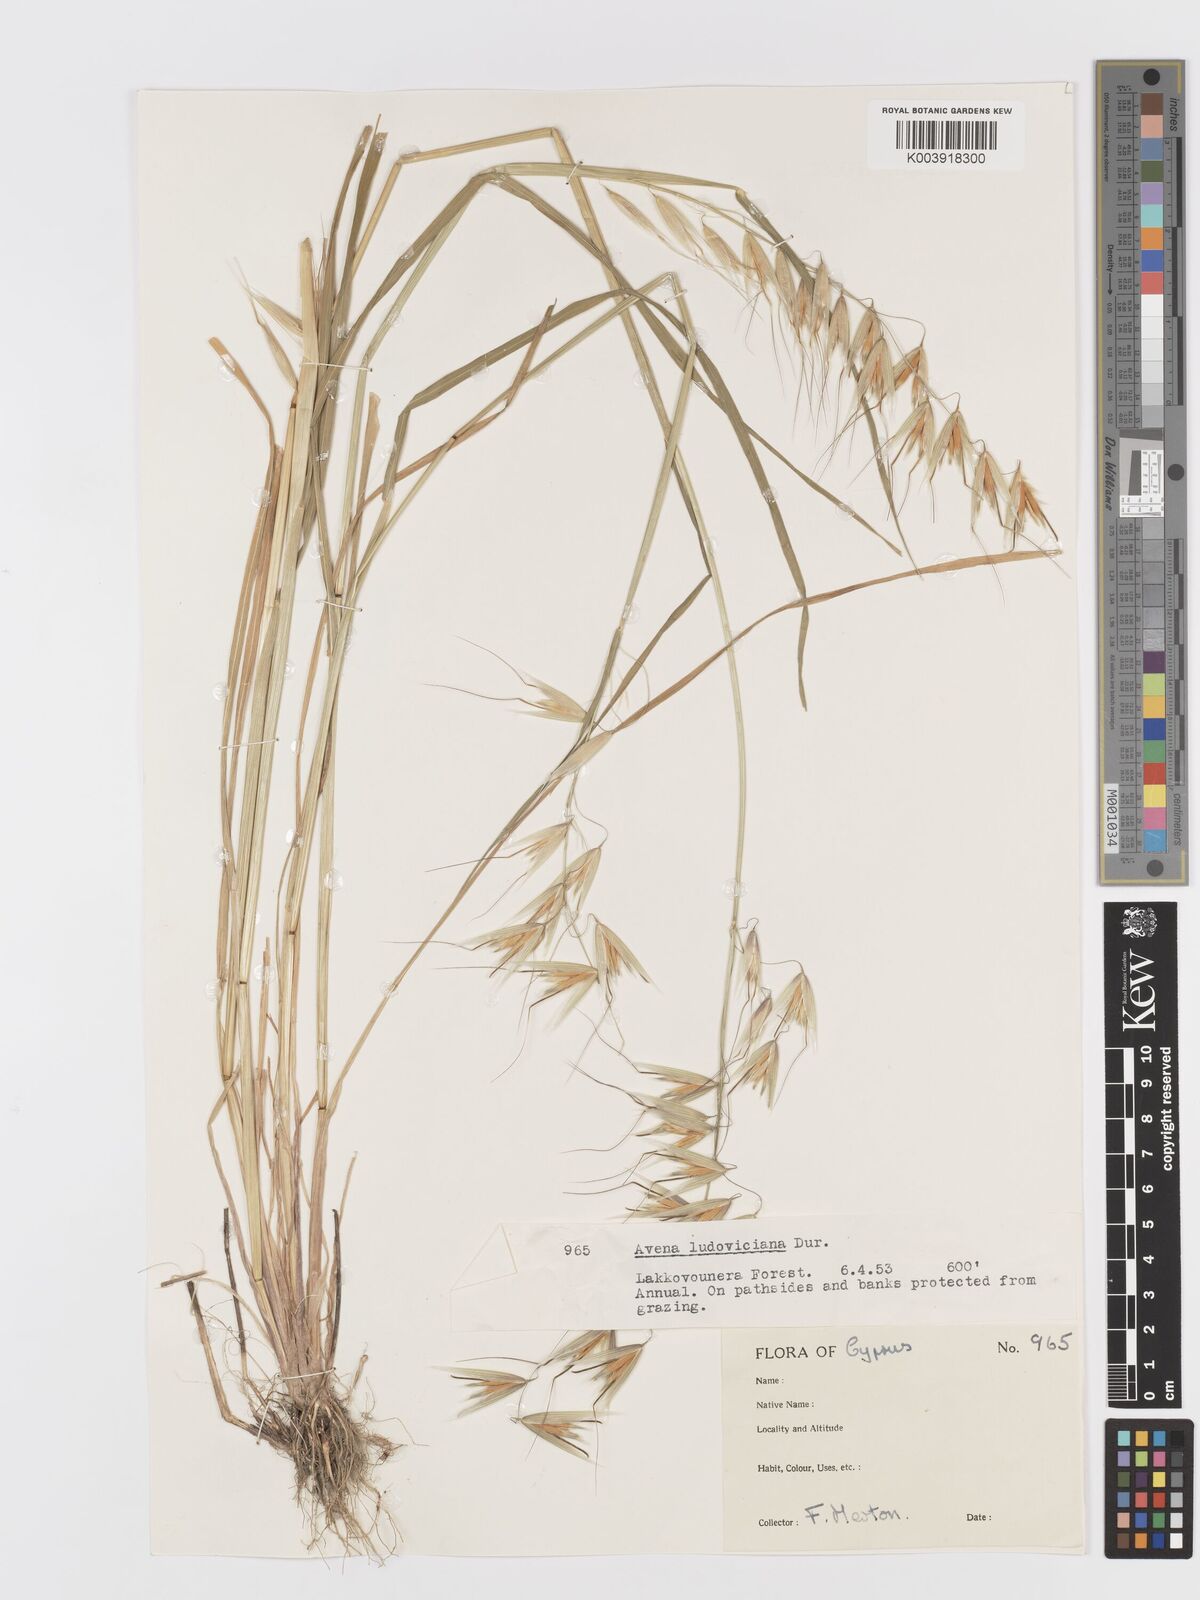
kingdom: Plantae
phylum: Tracheophyta
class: Liliopsida
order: Poales
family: Poaceae
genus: Avena
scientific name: Avena sterilis
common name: Animated oat
